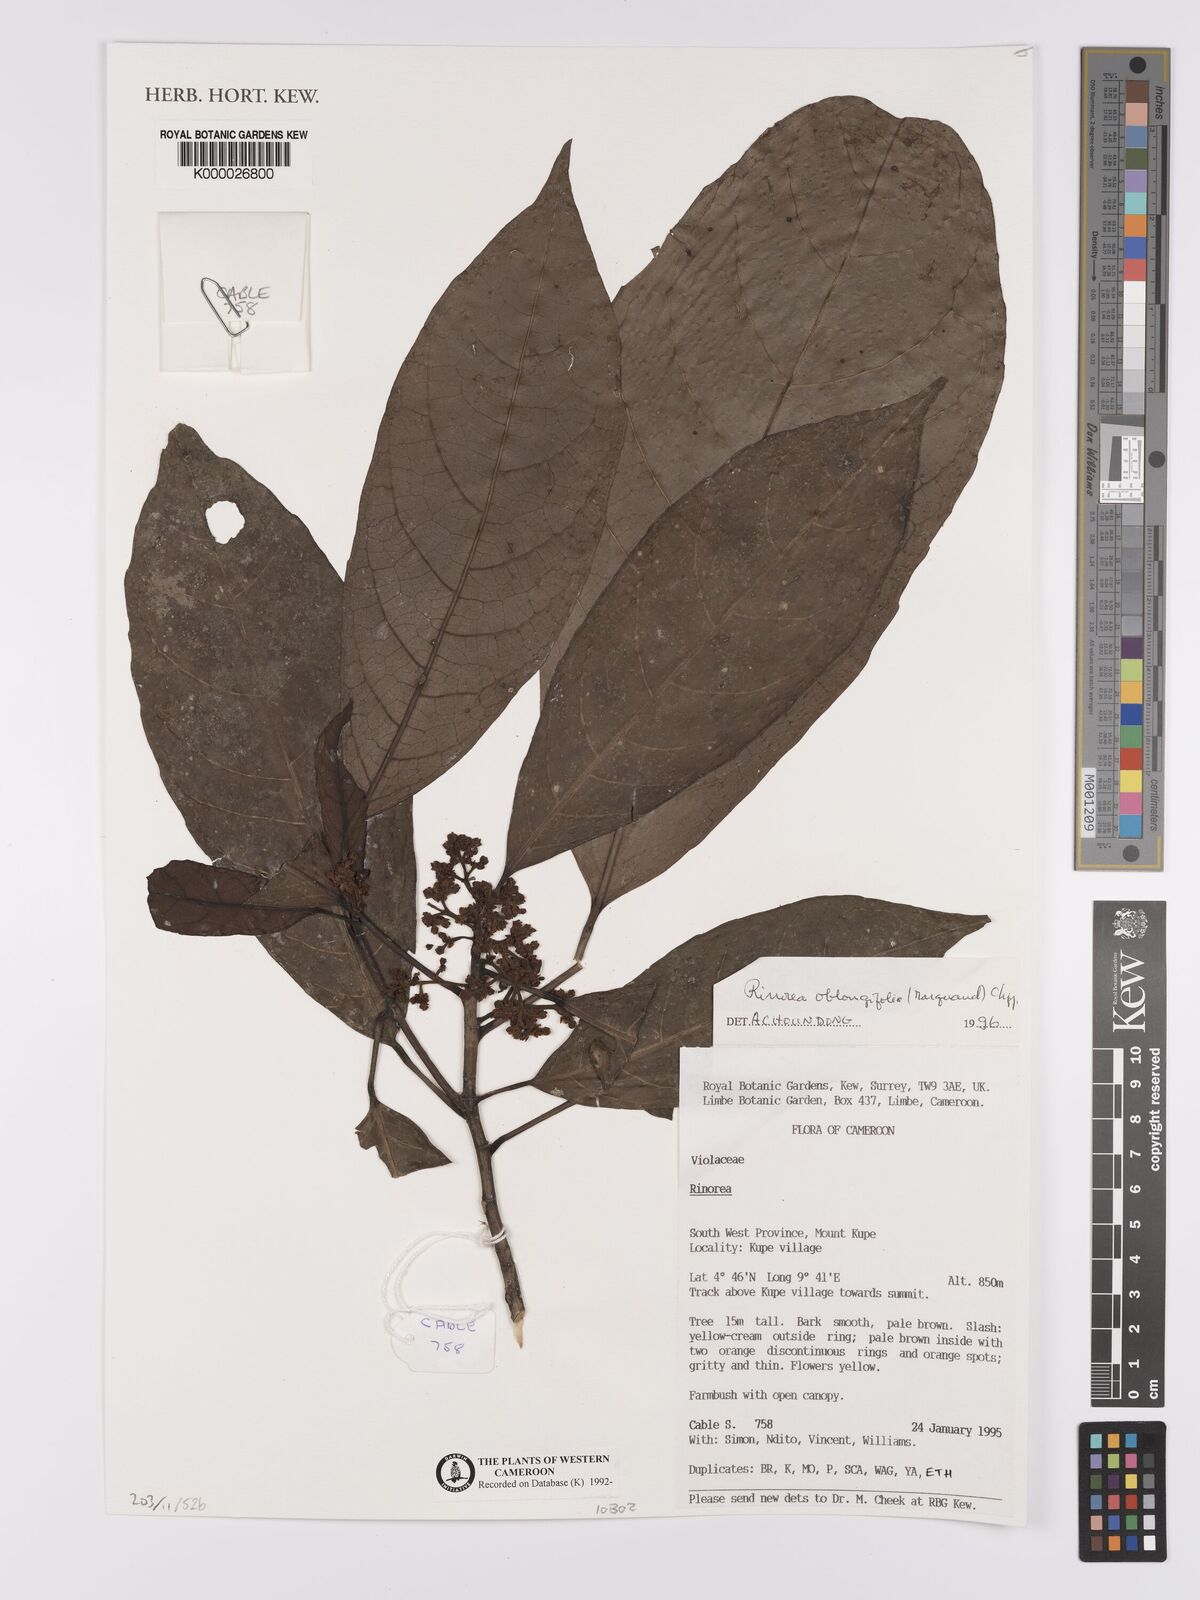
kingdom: Plantae
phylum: Tracheophyta
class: Magnoliopsida
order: Apiales
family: Pittosporaceae
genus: Marianthus
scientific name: Marianthus coeruleopunctatus
